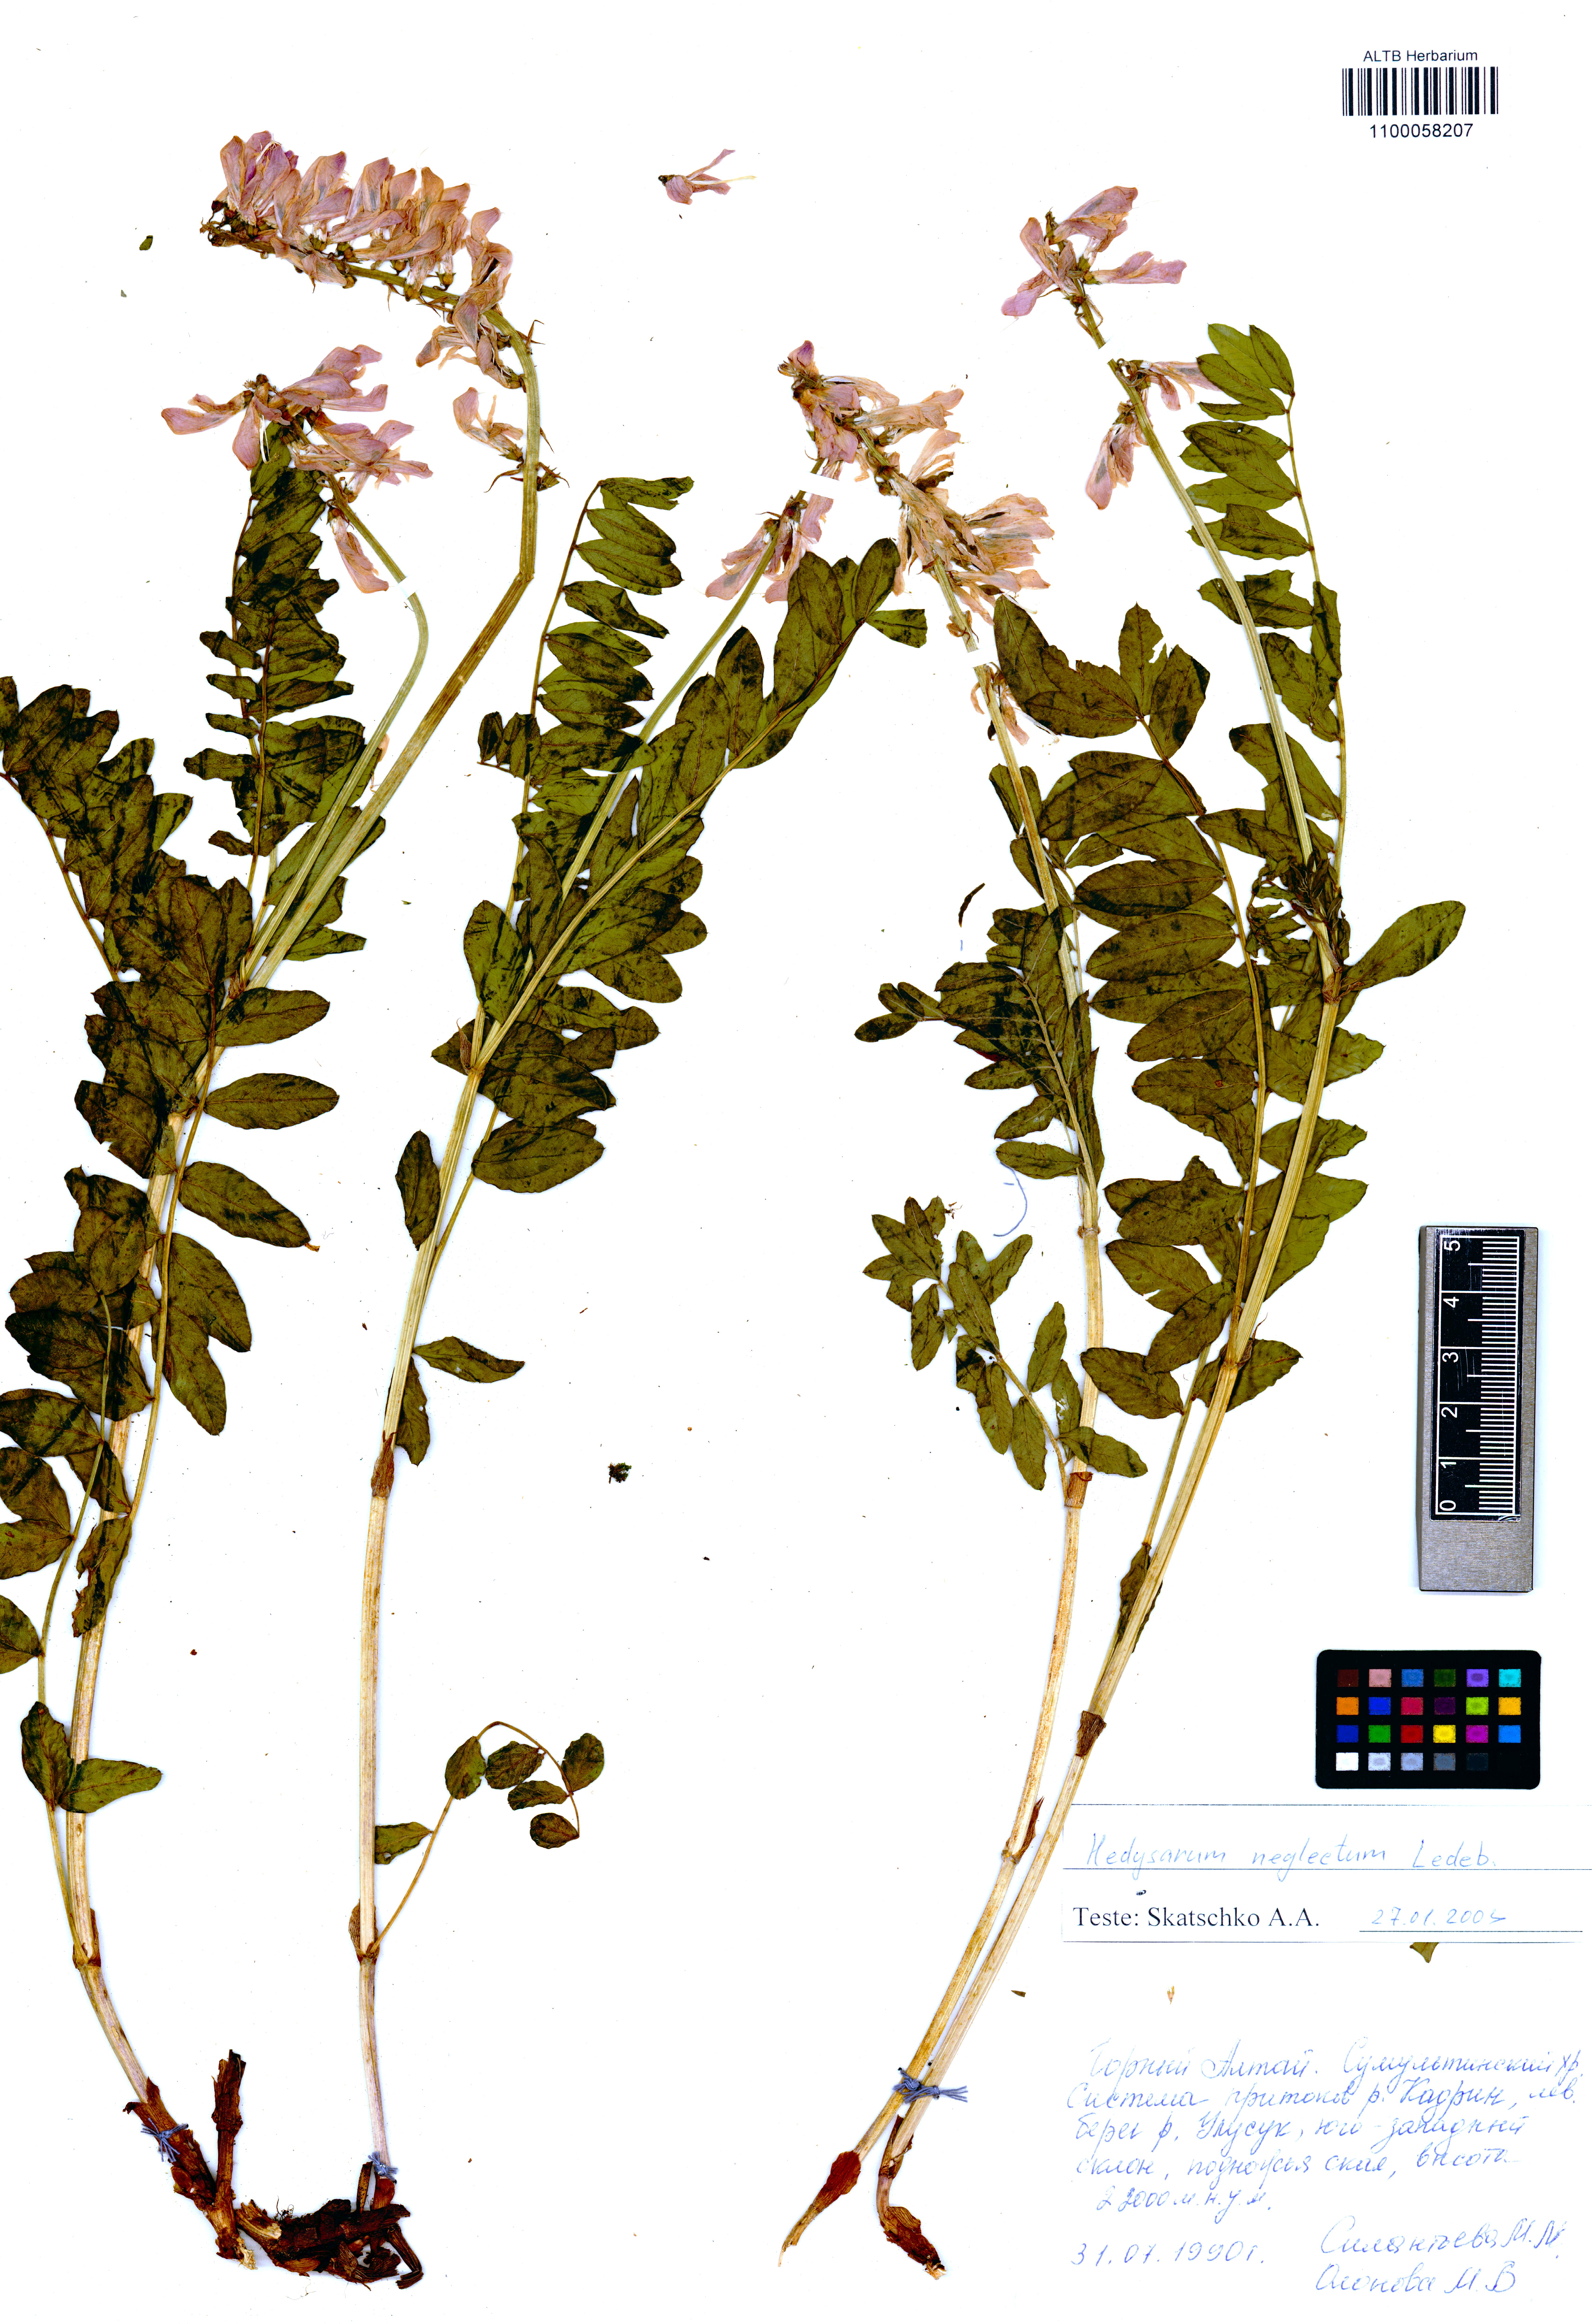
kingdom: Plantae
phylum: Tracheophyta
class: Magnoliopsida
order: Fabales
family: Fabaceae
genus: Hedysarum
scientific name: Hedysarum neglectum
